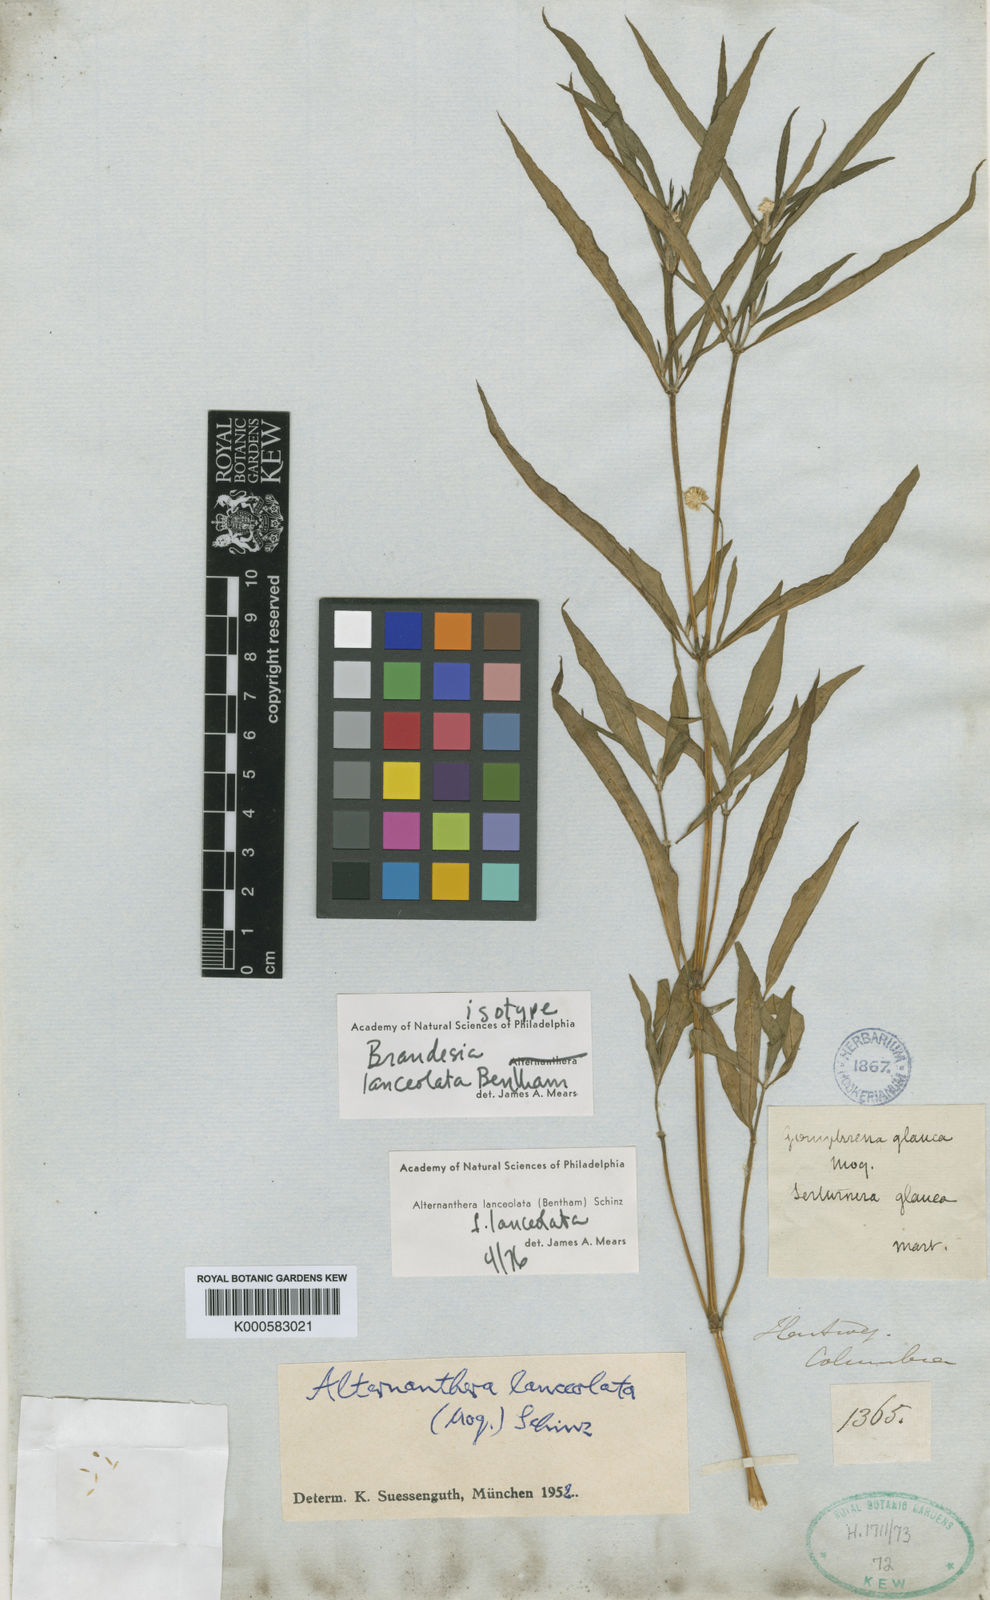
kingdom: Plantae
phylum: Tracheophyta
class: Magnoliopsida
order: Caryophyllales
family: Amaranthaceae
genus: Alternanthera
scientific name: Alternanthera lanceolata
